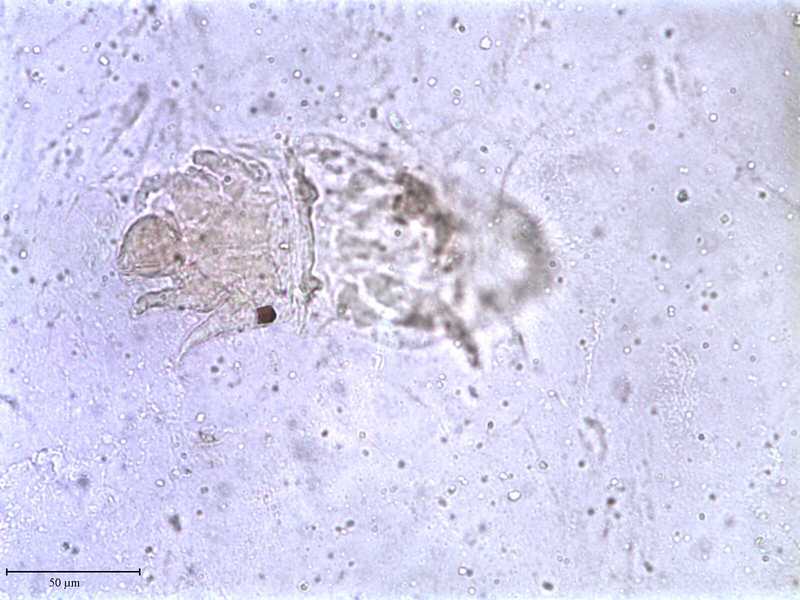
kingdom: Animalia
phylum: Arthropoda
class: Arachnida
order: Trombidiformes
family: Tarsonemidae
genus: Pseudotarsonemoides
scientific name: Pseudotarsonemoides innumerabilis
